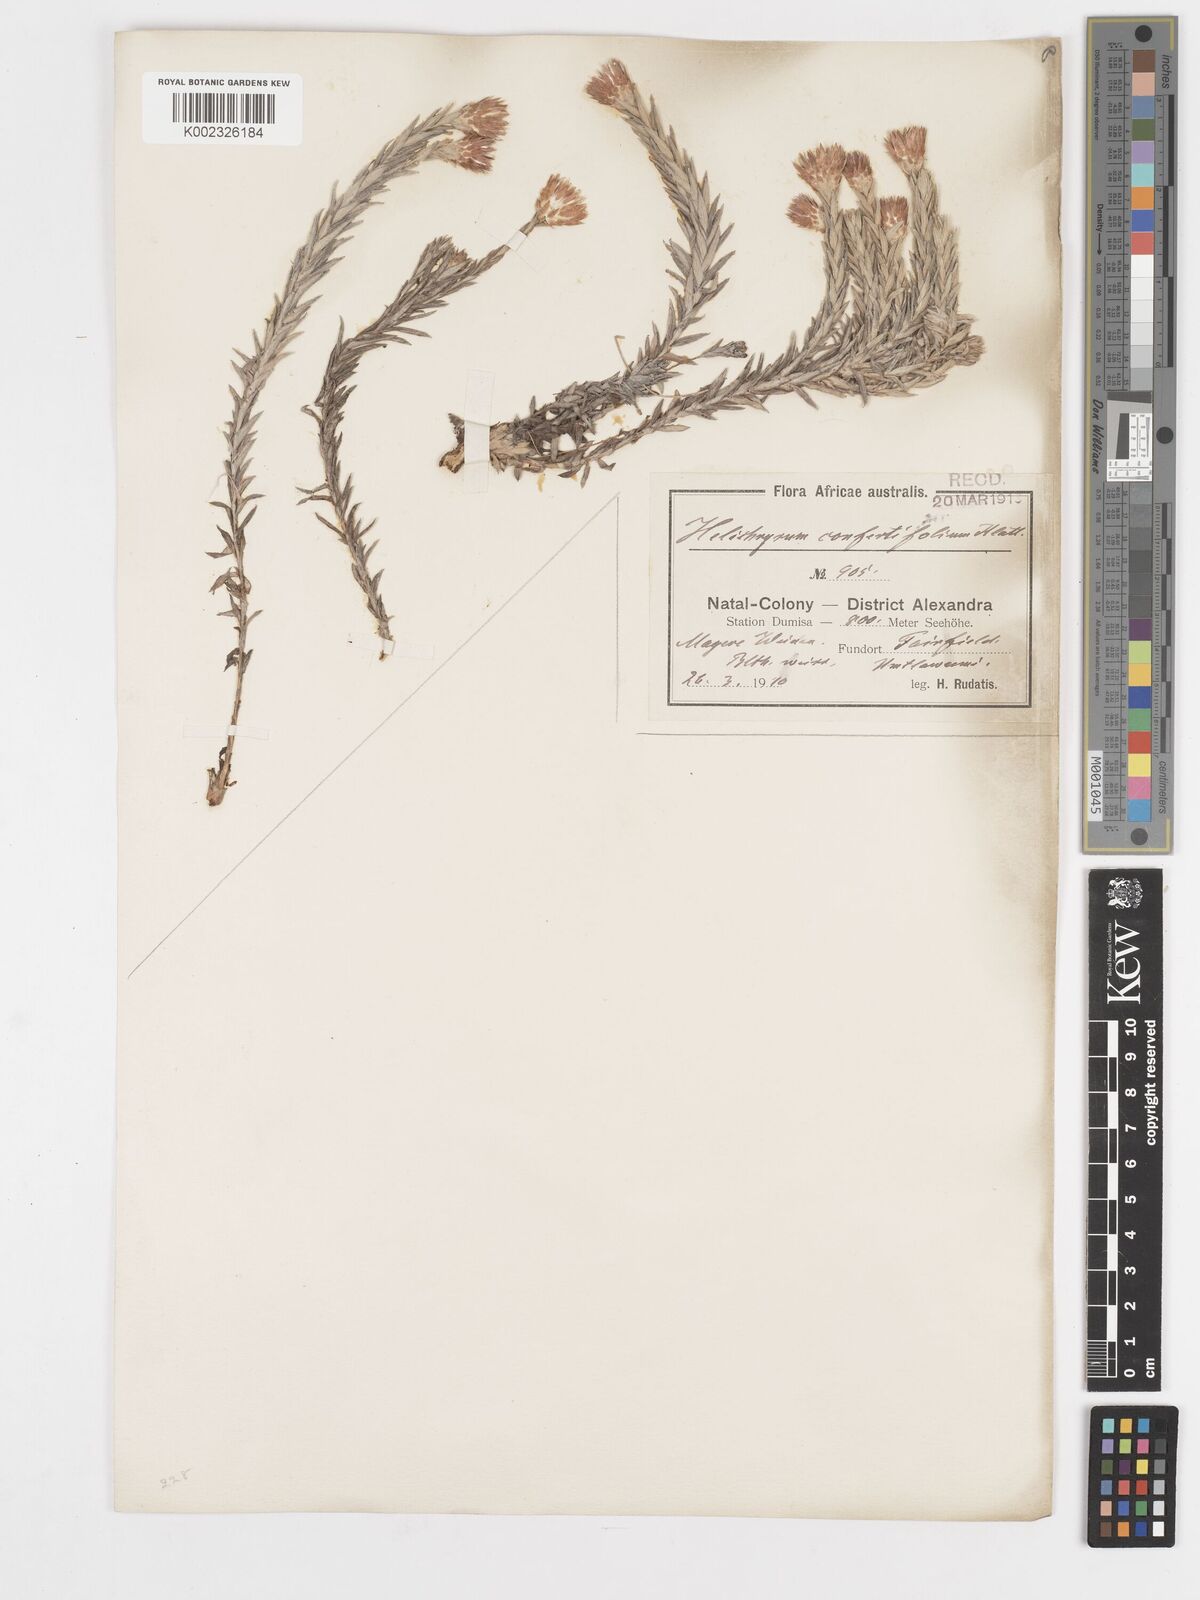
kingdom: Plantae
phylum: Tracheophyta
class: Magnoliopsida
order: Asterales
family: Asteraceae
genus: Helichrysum
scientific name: Helichrysum confertifolium
